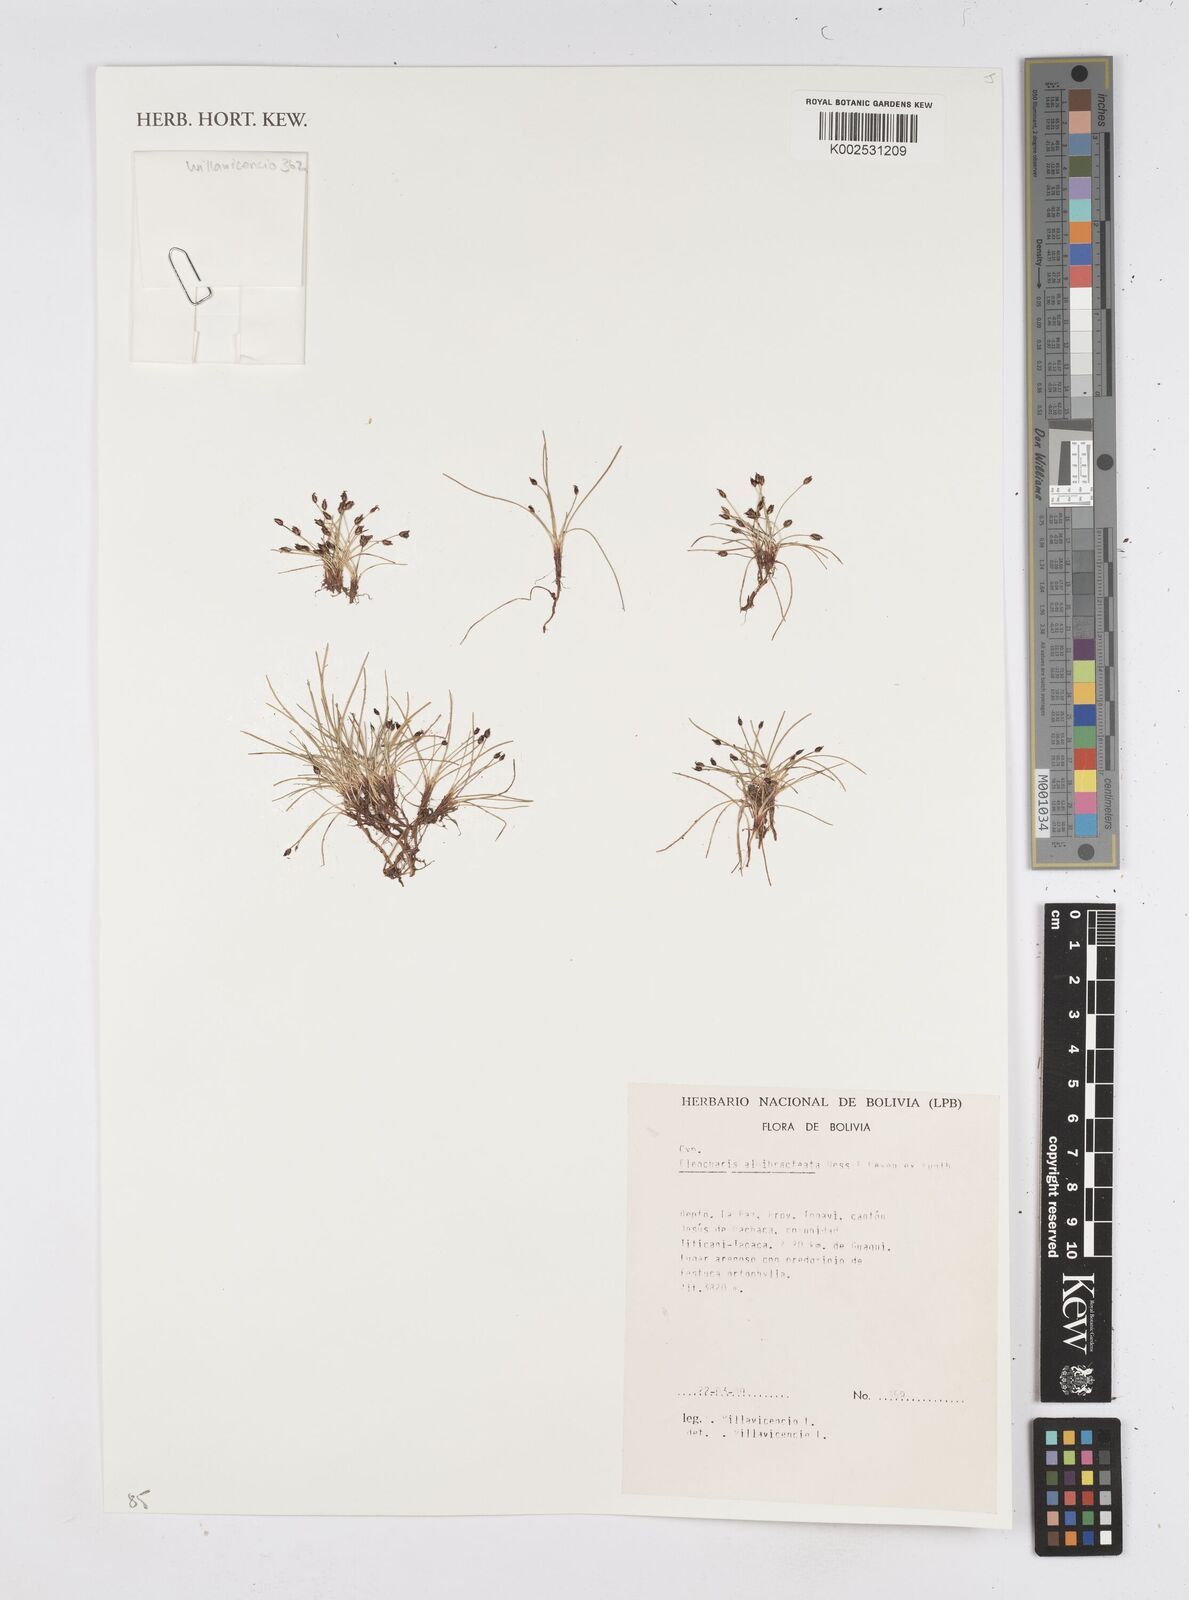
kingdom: Plantae
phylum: Tracheophyta
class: Liliopsida
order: Poales
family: Cyperaceae
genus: Eleocharis
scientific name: Eleocharis albibracteata
